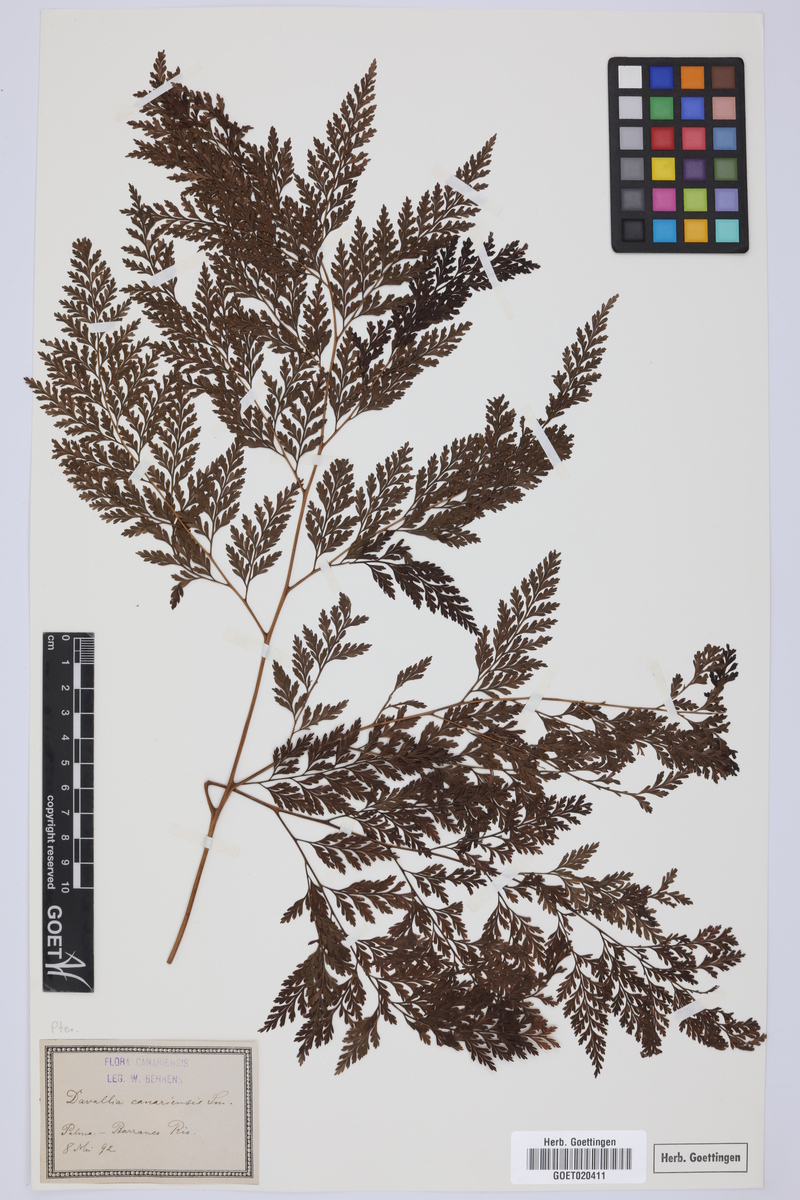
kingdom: Plantae
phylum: Tracheophyta
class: Polypodiopsida
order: Polypodiales
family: Davalliaceae
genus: Davallia
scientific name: Davallia canariensis
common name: Hare's-foot fern
